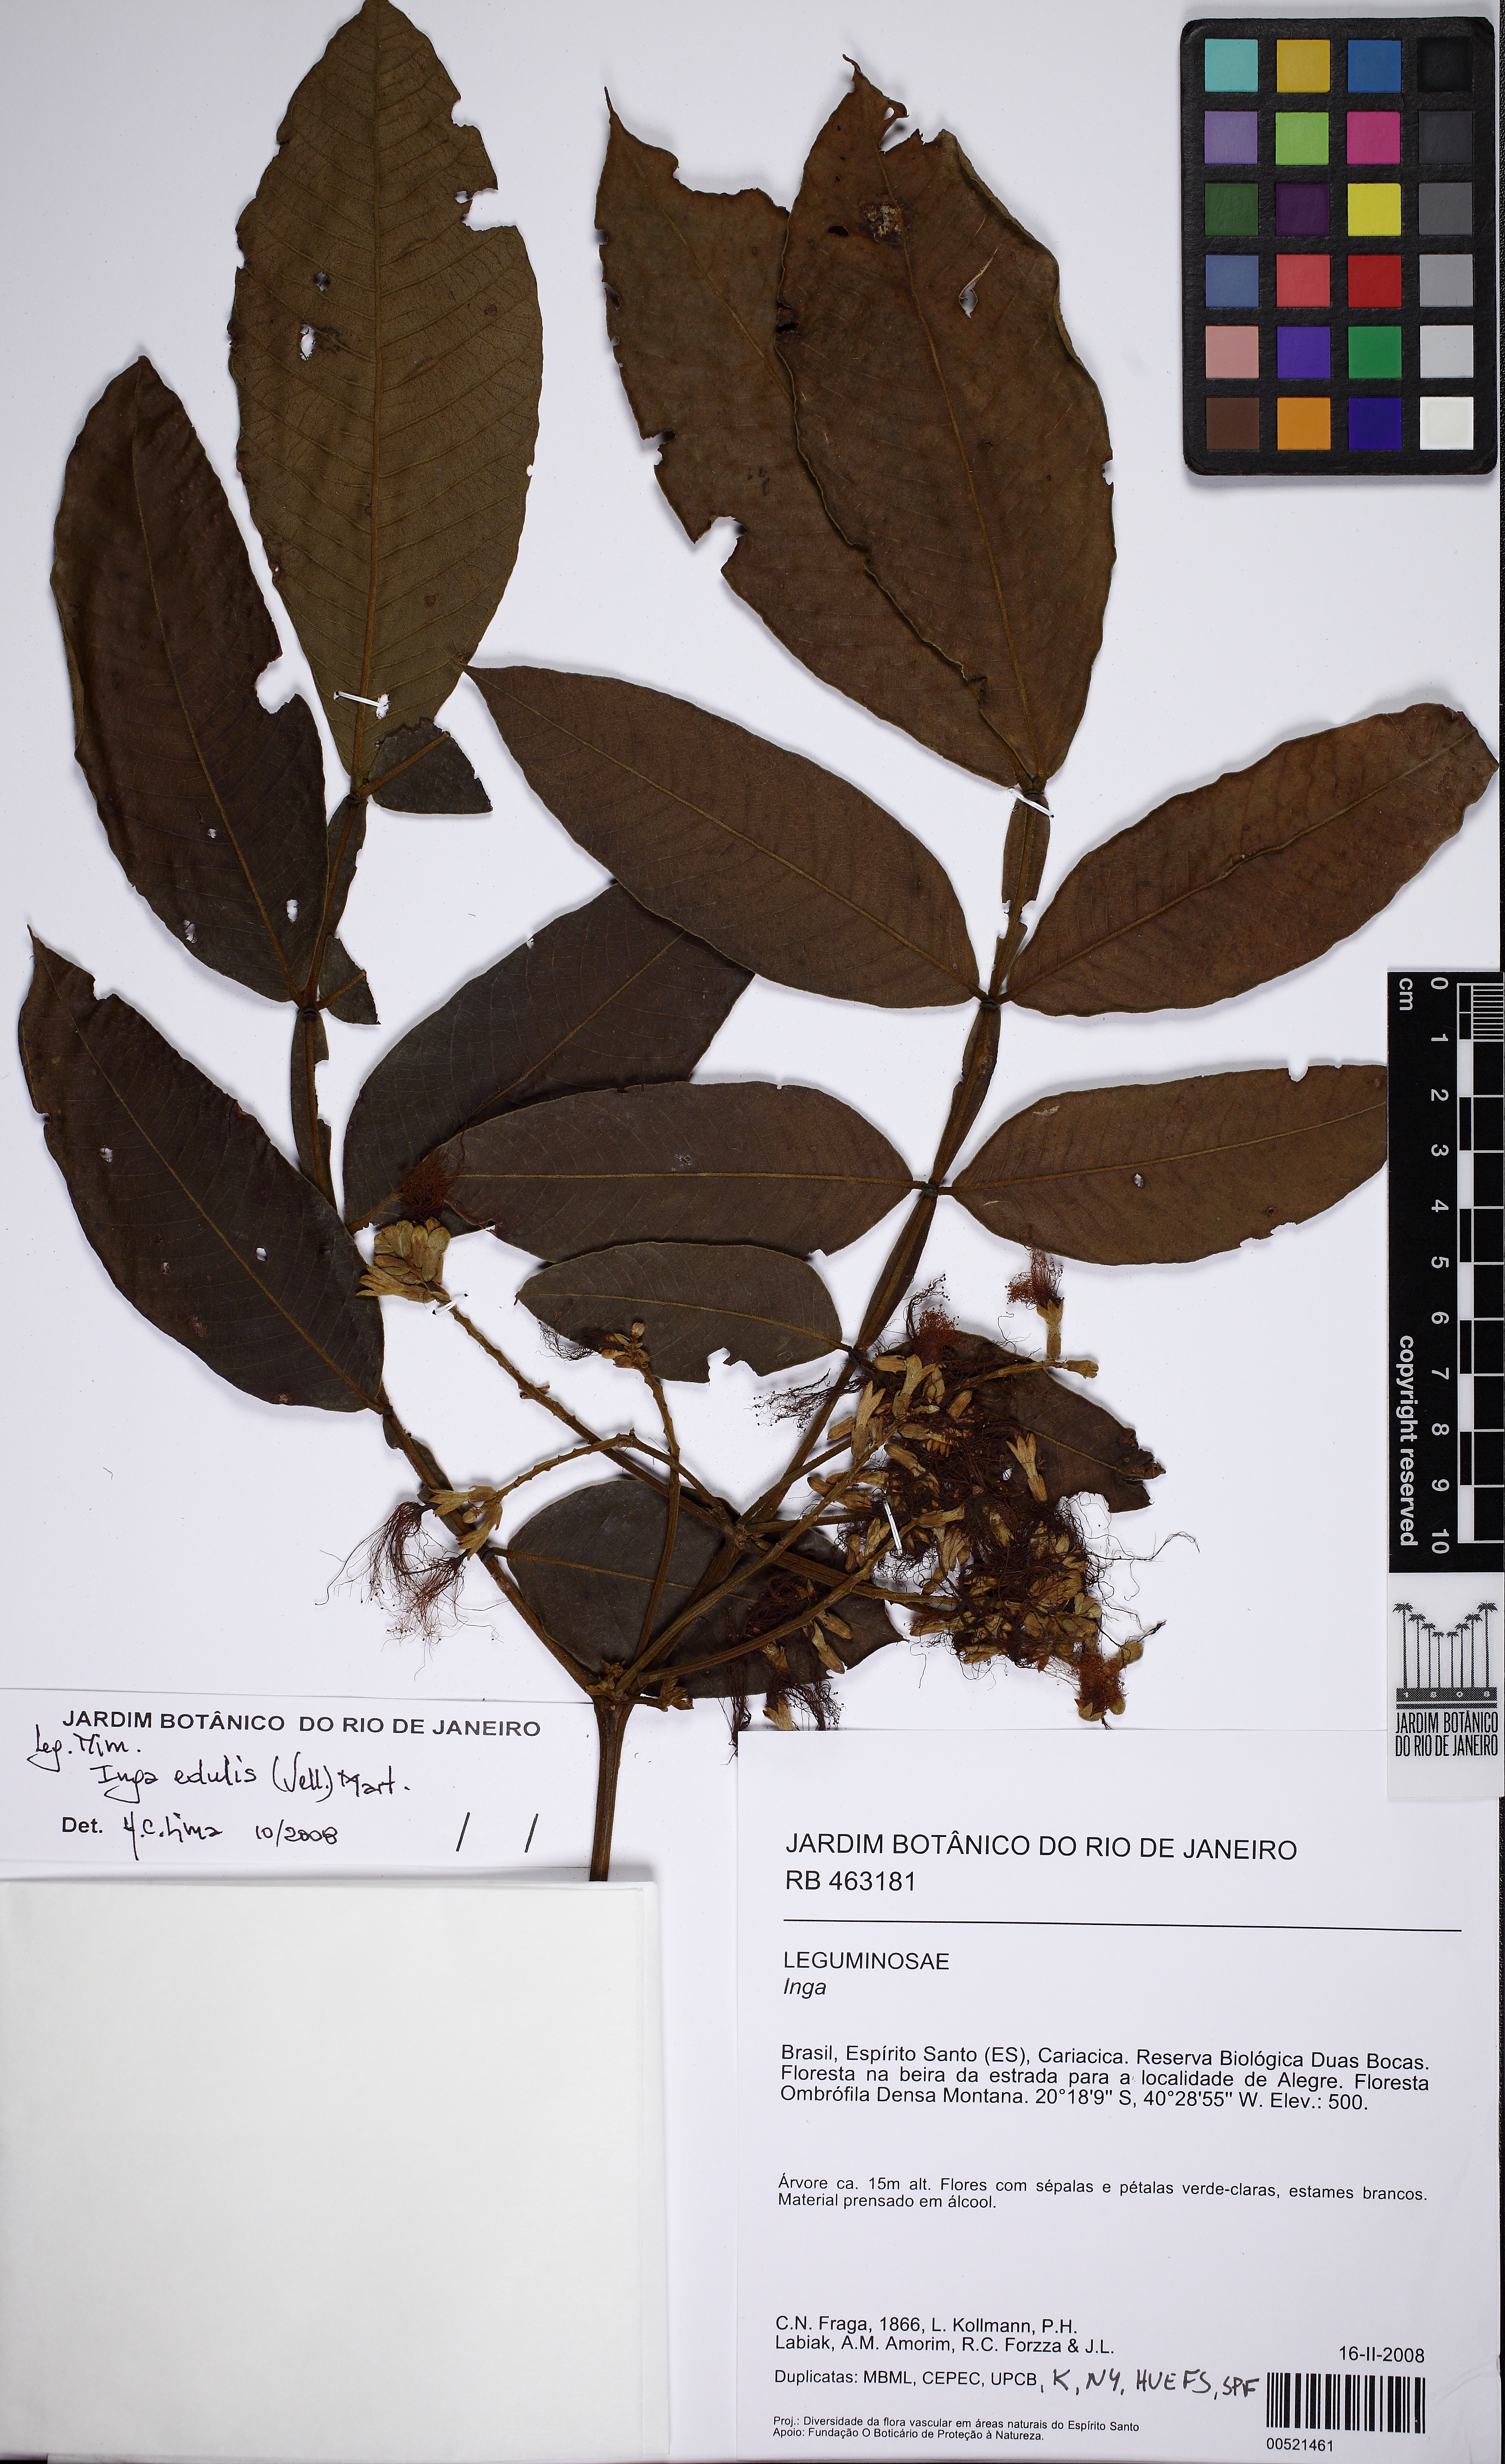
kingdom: Plantae
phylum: Tracheophyta
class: Magnoliopsida
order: Fabales
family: Fabaceae
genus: Inga
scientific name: Inga edulis
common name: Ice cream bean
